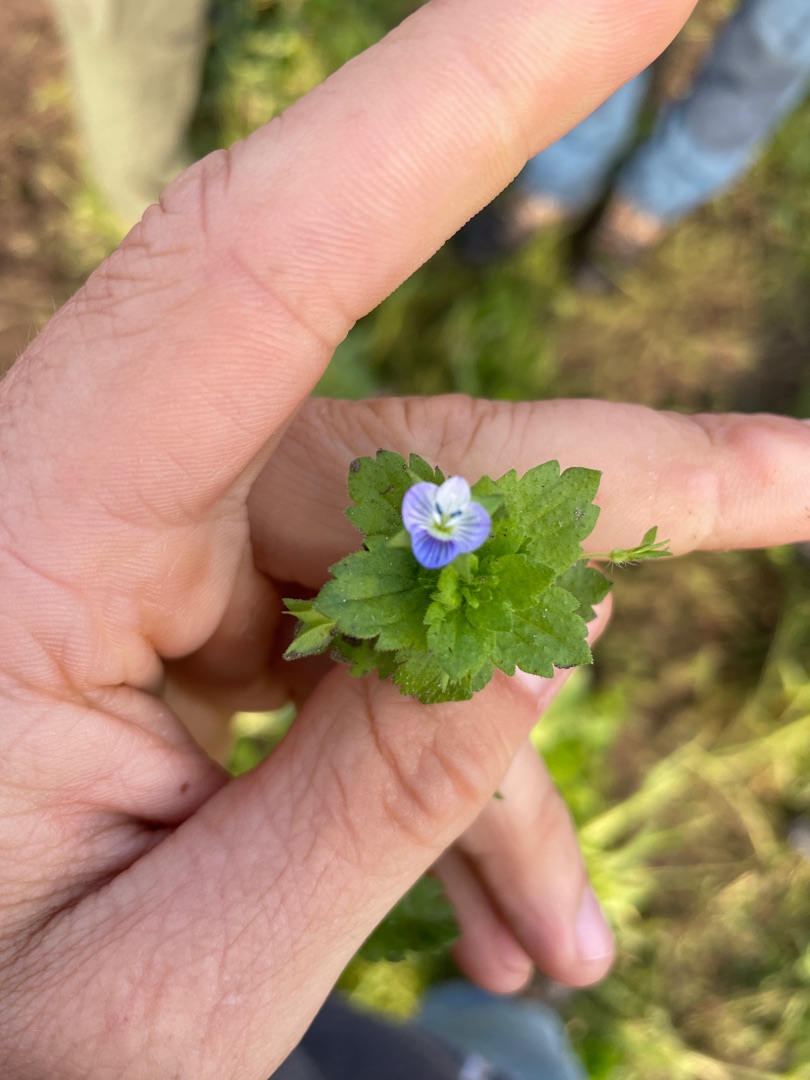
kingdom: Plantae
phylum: Tracheophyta
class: Magnoliopsida
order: Lamiales
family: Plantaginaceae
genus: Veronica
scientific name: Veronica persica
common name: Storkronet ærenpris
